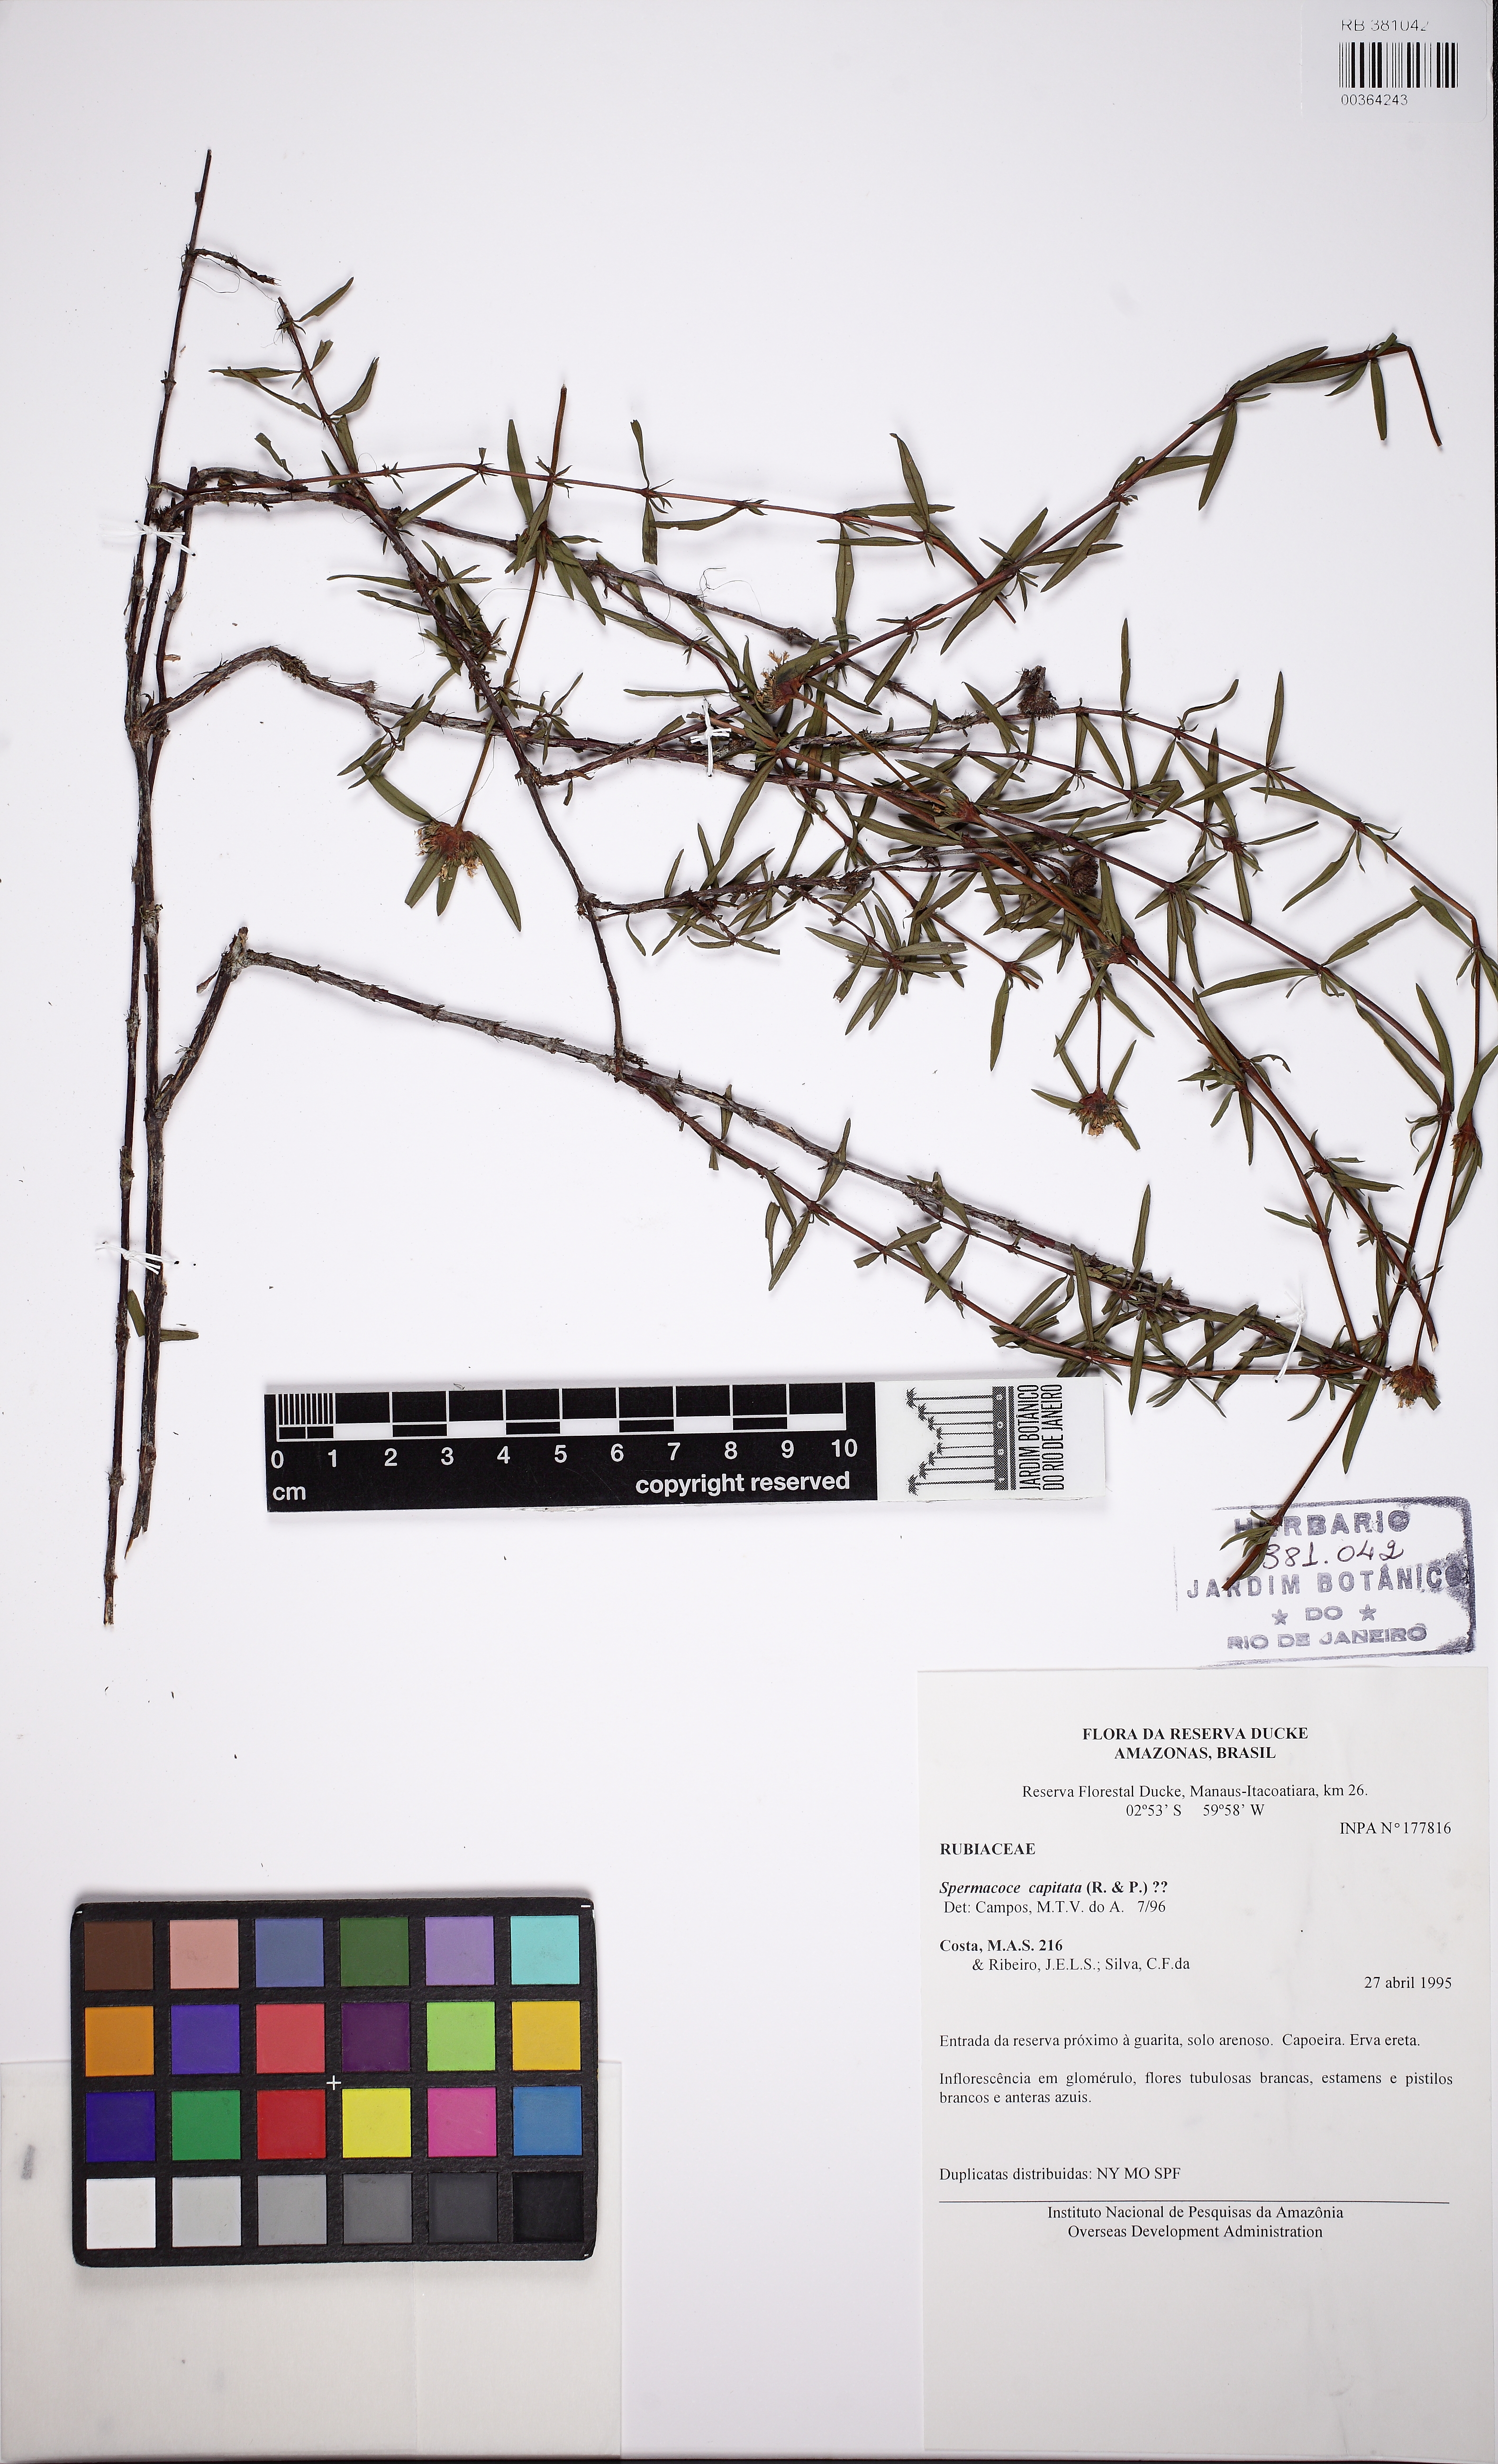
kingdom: Plantae
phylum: Tracheophyta
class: Magnoliopsida
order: Gentianales
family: Rubiaceae
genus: Spermacoce
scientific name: Spermacoce suaveolens
